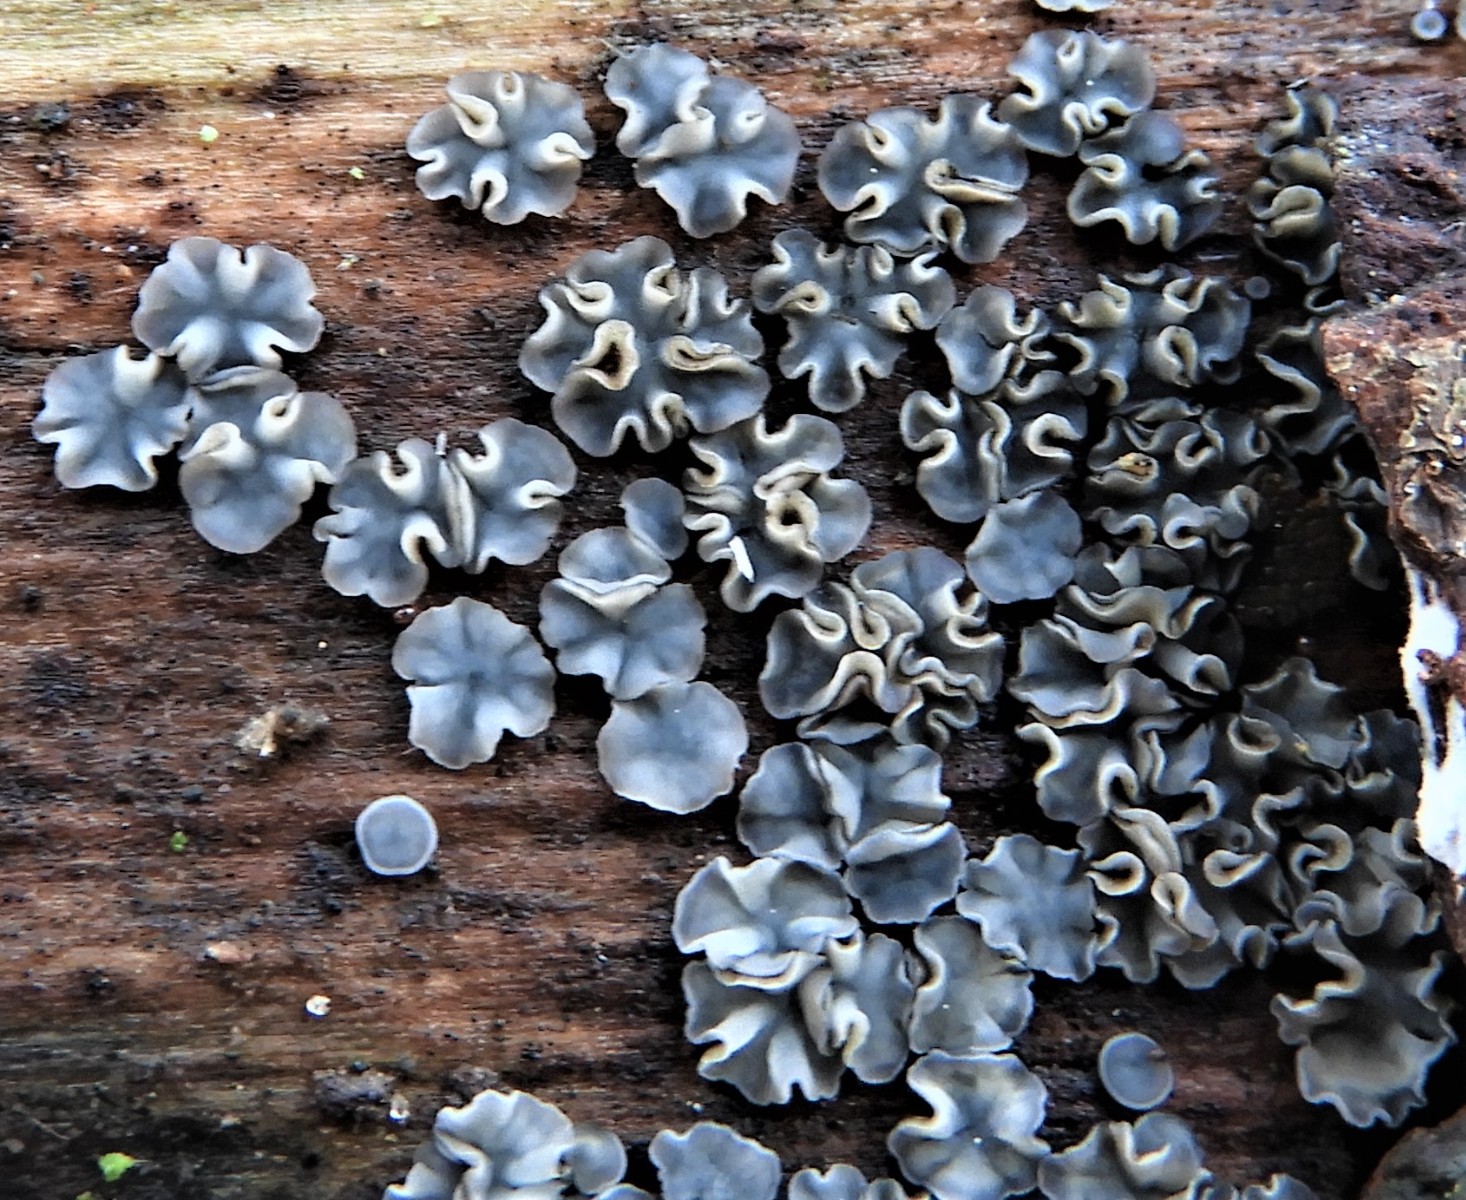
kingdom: Fungi
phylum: Ascomycota
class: Leotiomycetes
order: Helotiales
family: Mollisiaceae
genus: Mollisia
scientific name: Mollisia
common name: gråskive
